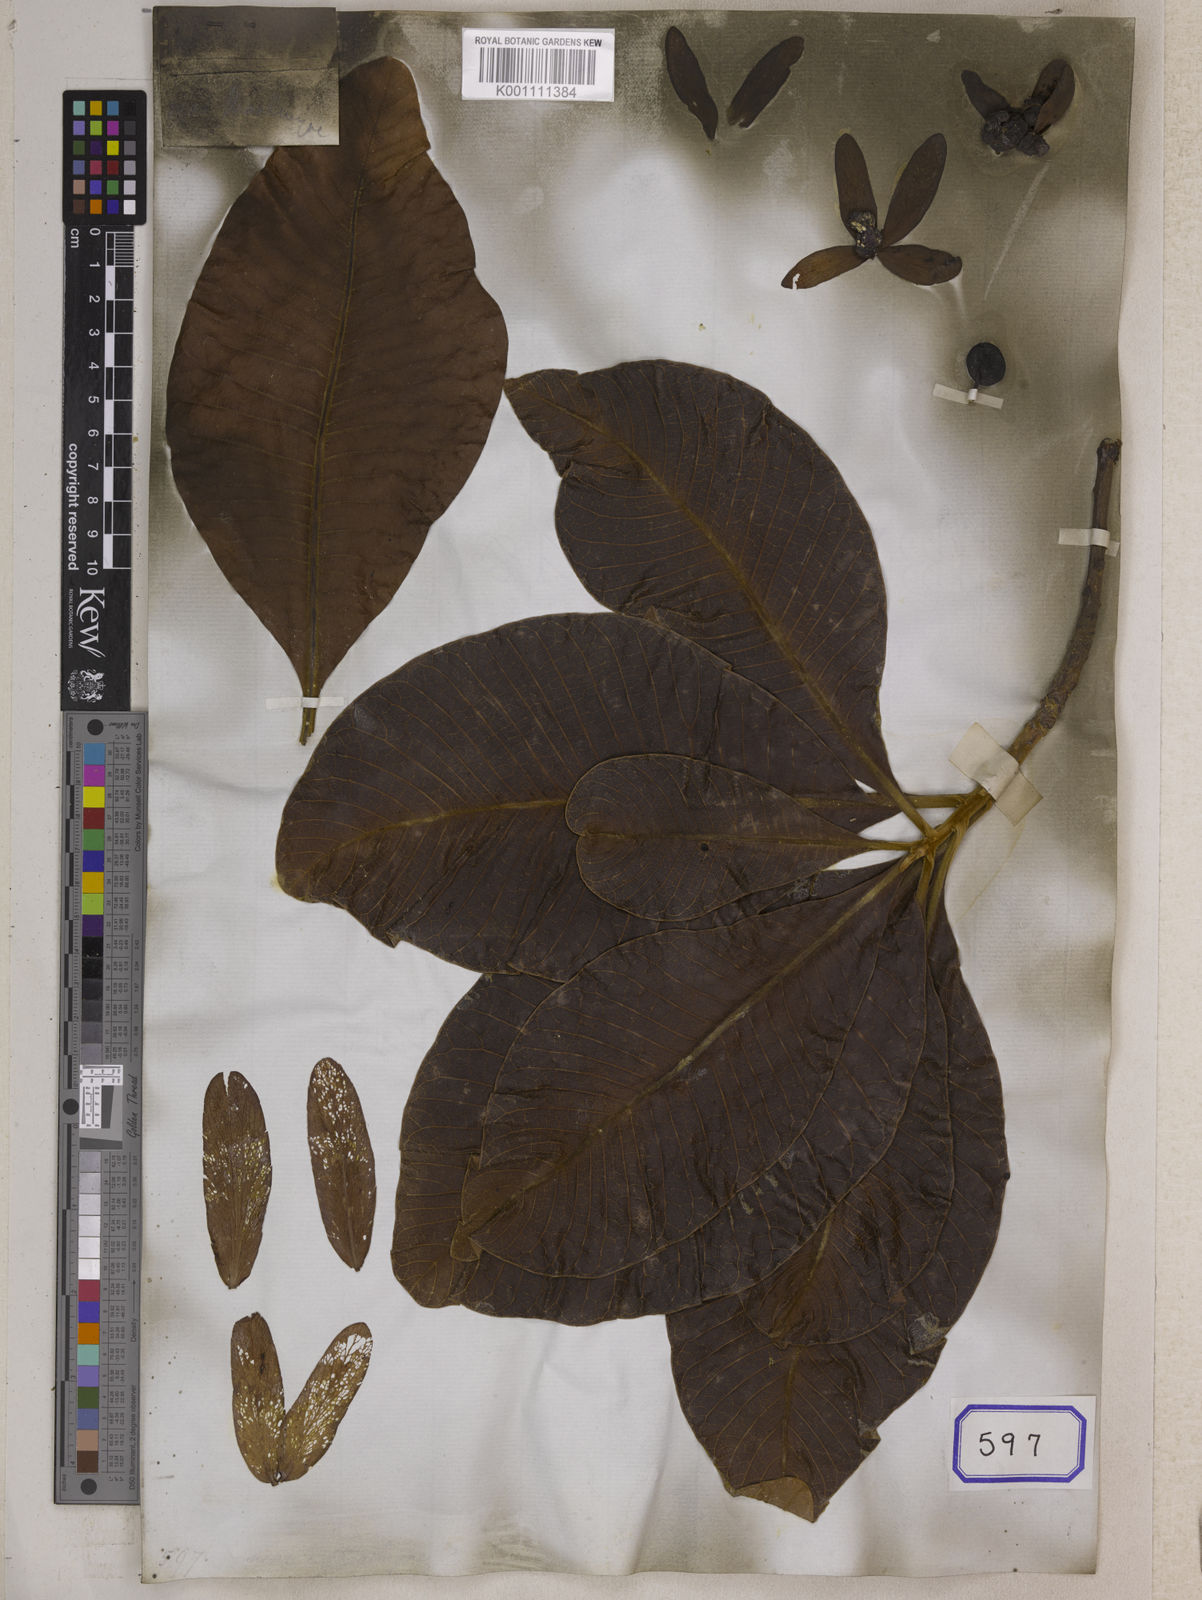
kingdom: Plantae
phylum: Tracheophyta
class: Magnoliopsida
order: Sapindales
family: Anacardiaceae
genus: Gluta
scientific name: Gluta
